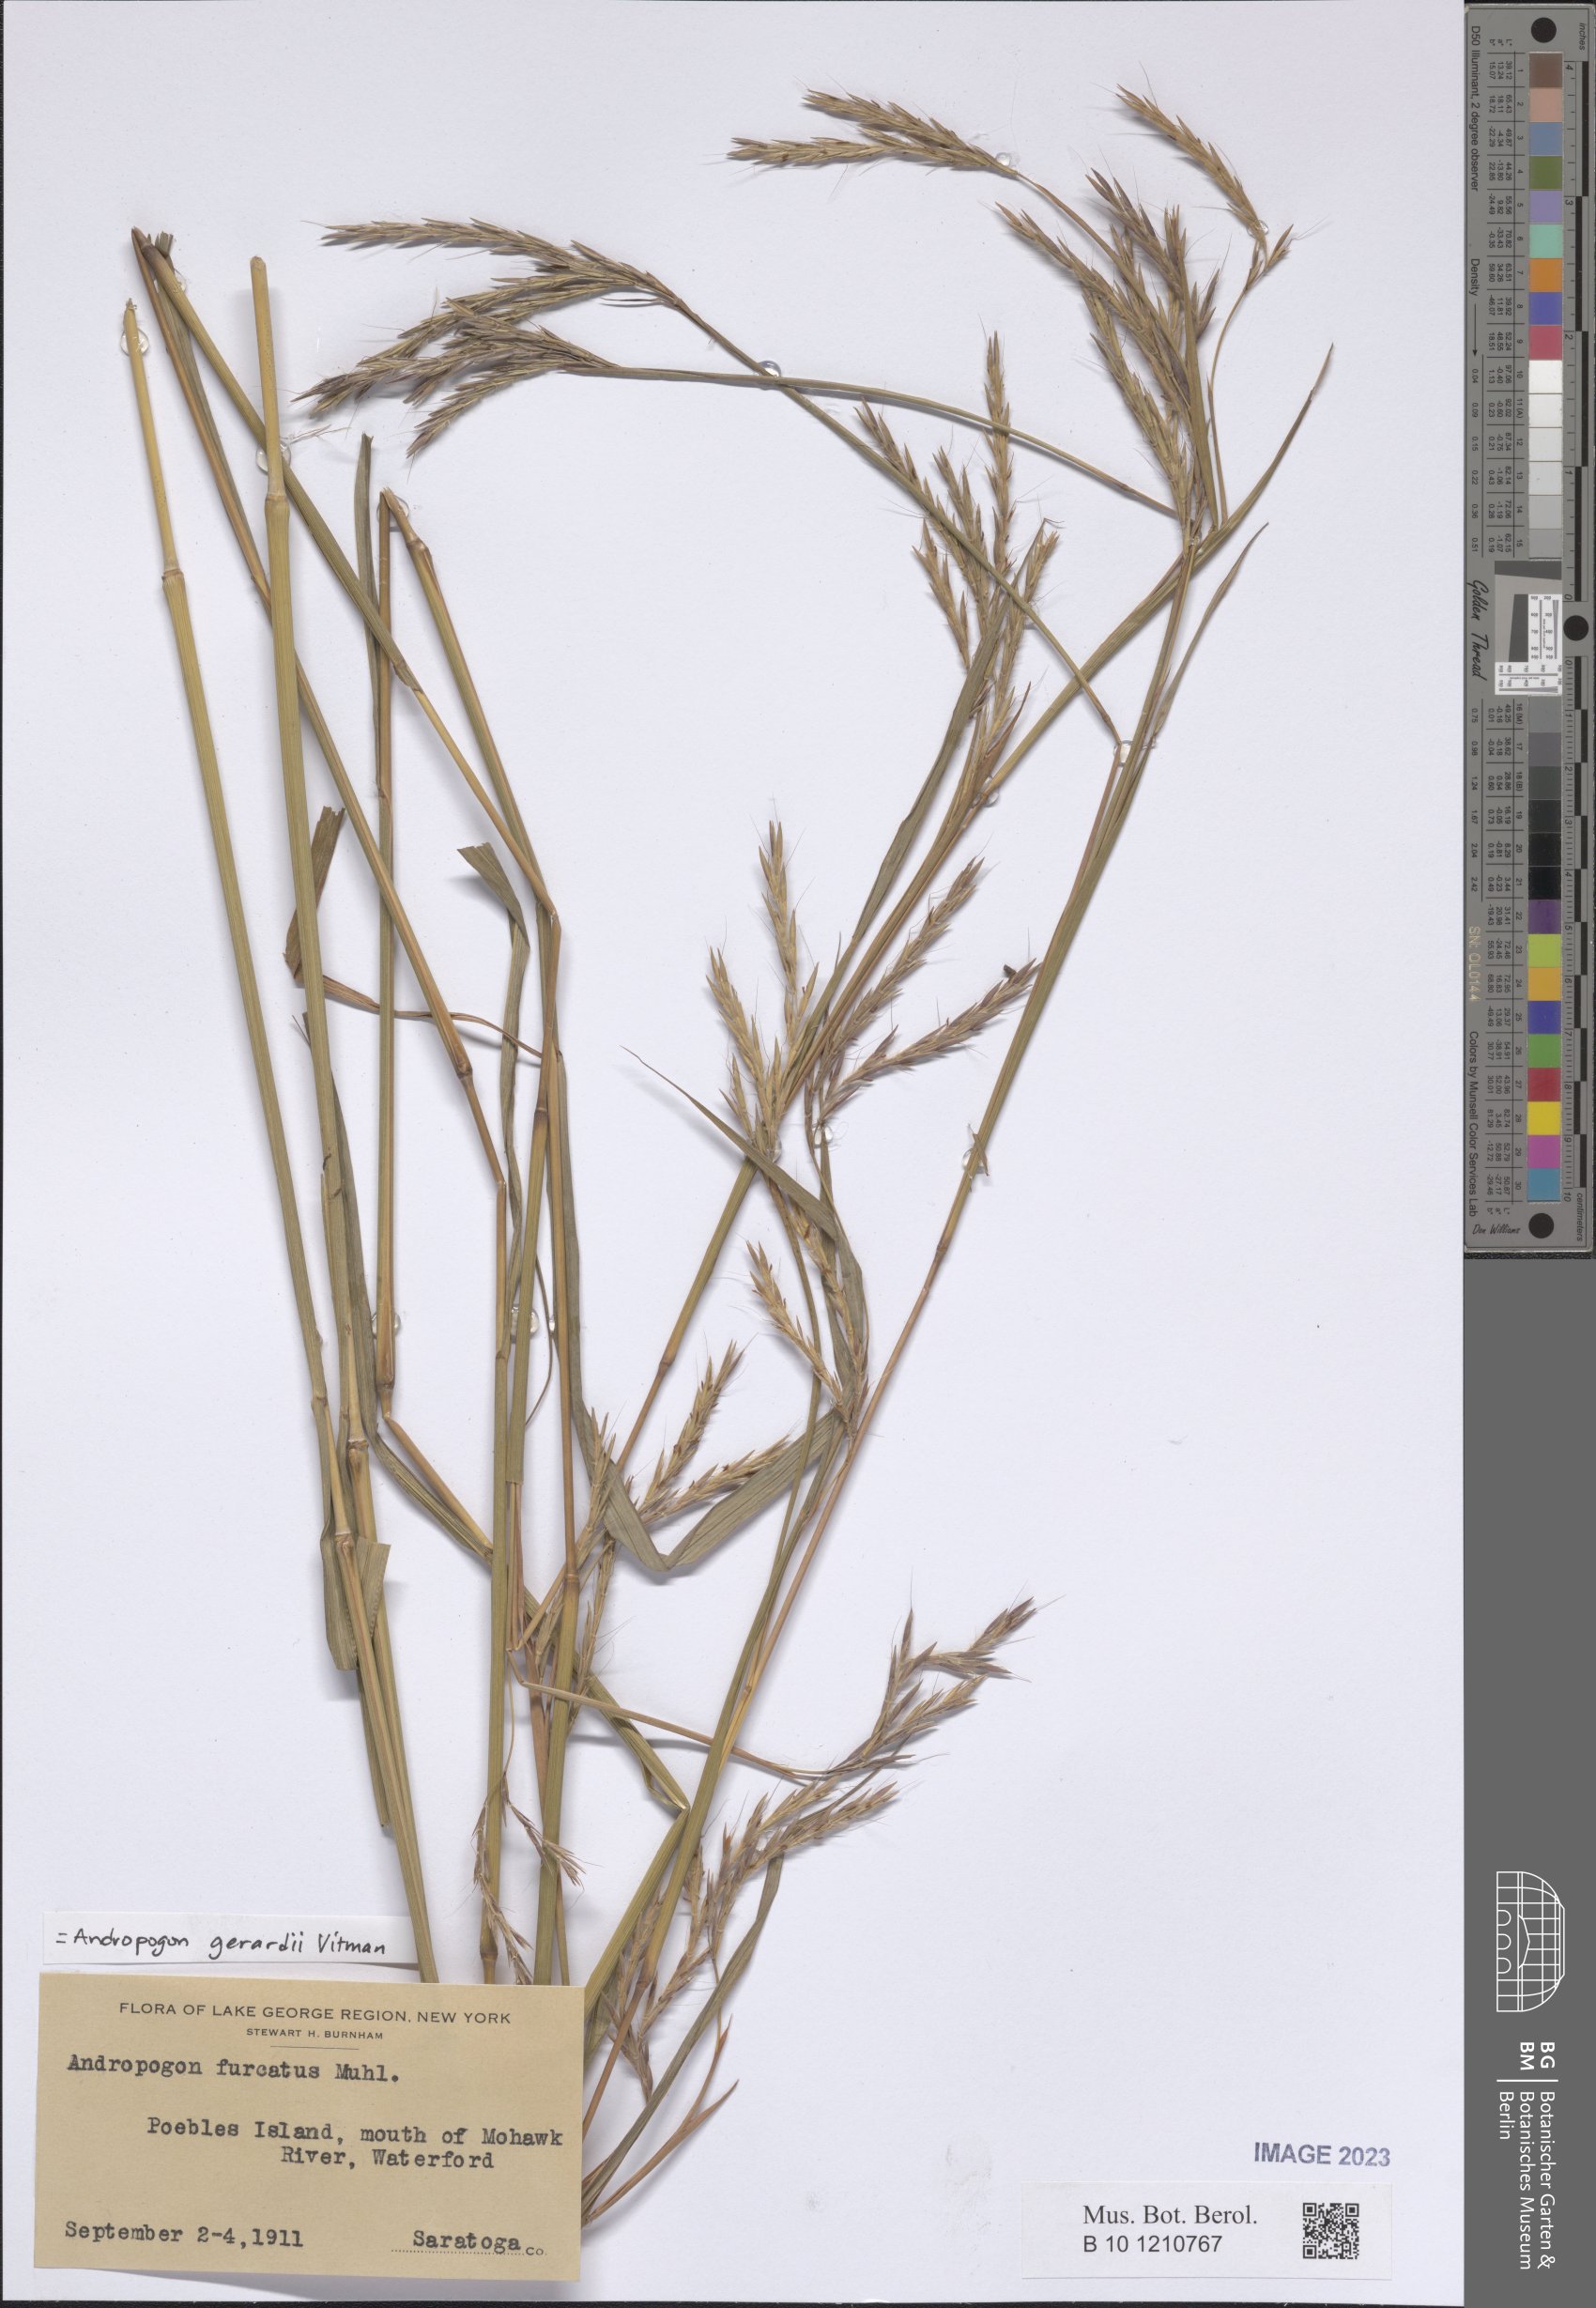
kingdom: Plantae
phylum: Tracheophyta
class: Liliopsida
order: Poales
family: Poaceae
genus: Andropogon
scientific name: Andropogon gerardi
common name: Big bluestem
